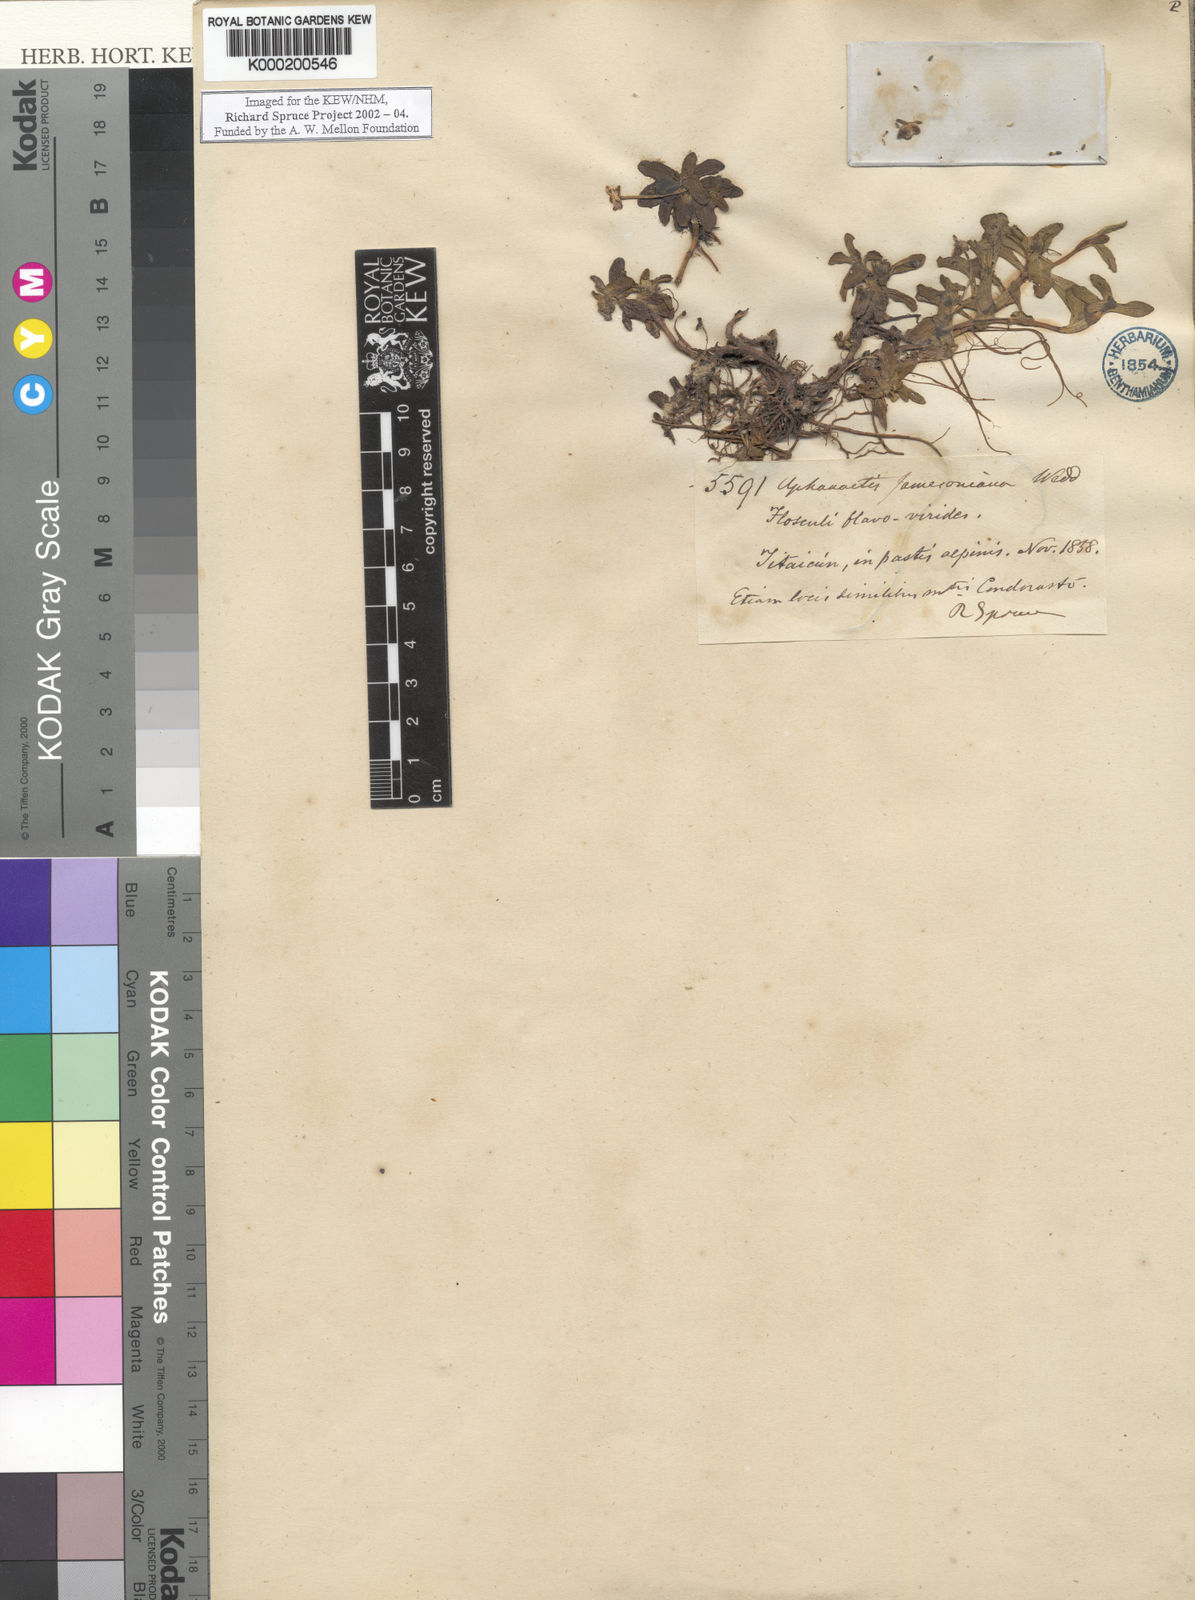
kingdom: Plantae
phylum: Tracheophyta
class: Magnoliopsida
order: Asterales
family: Asteraceae
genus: Aphanactis
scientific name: Aphanactis jamesoniana
